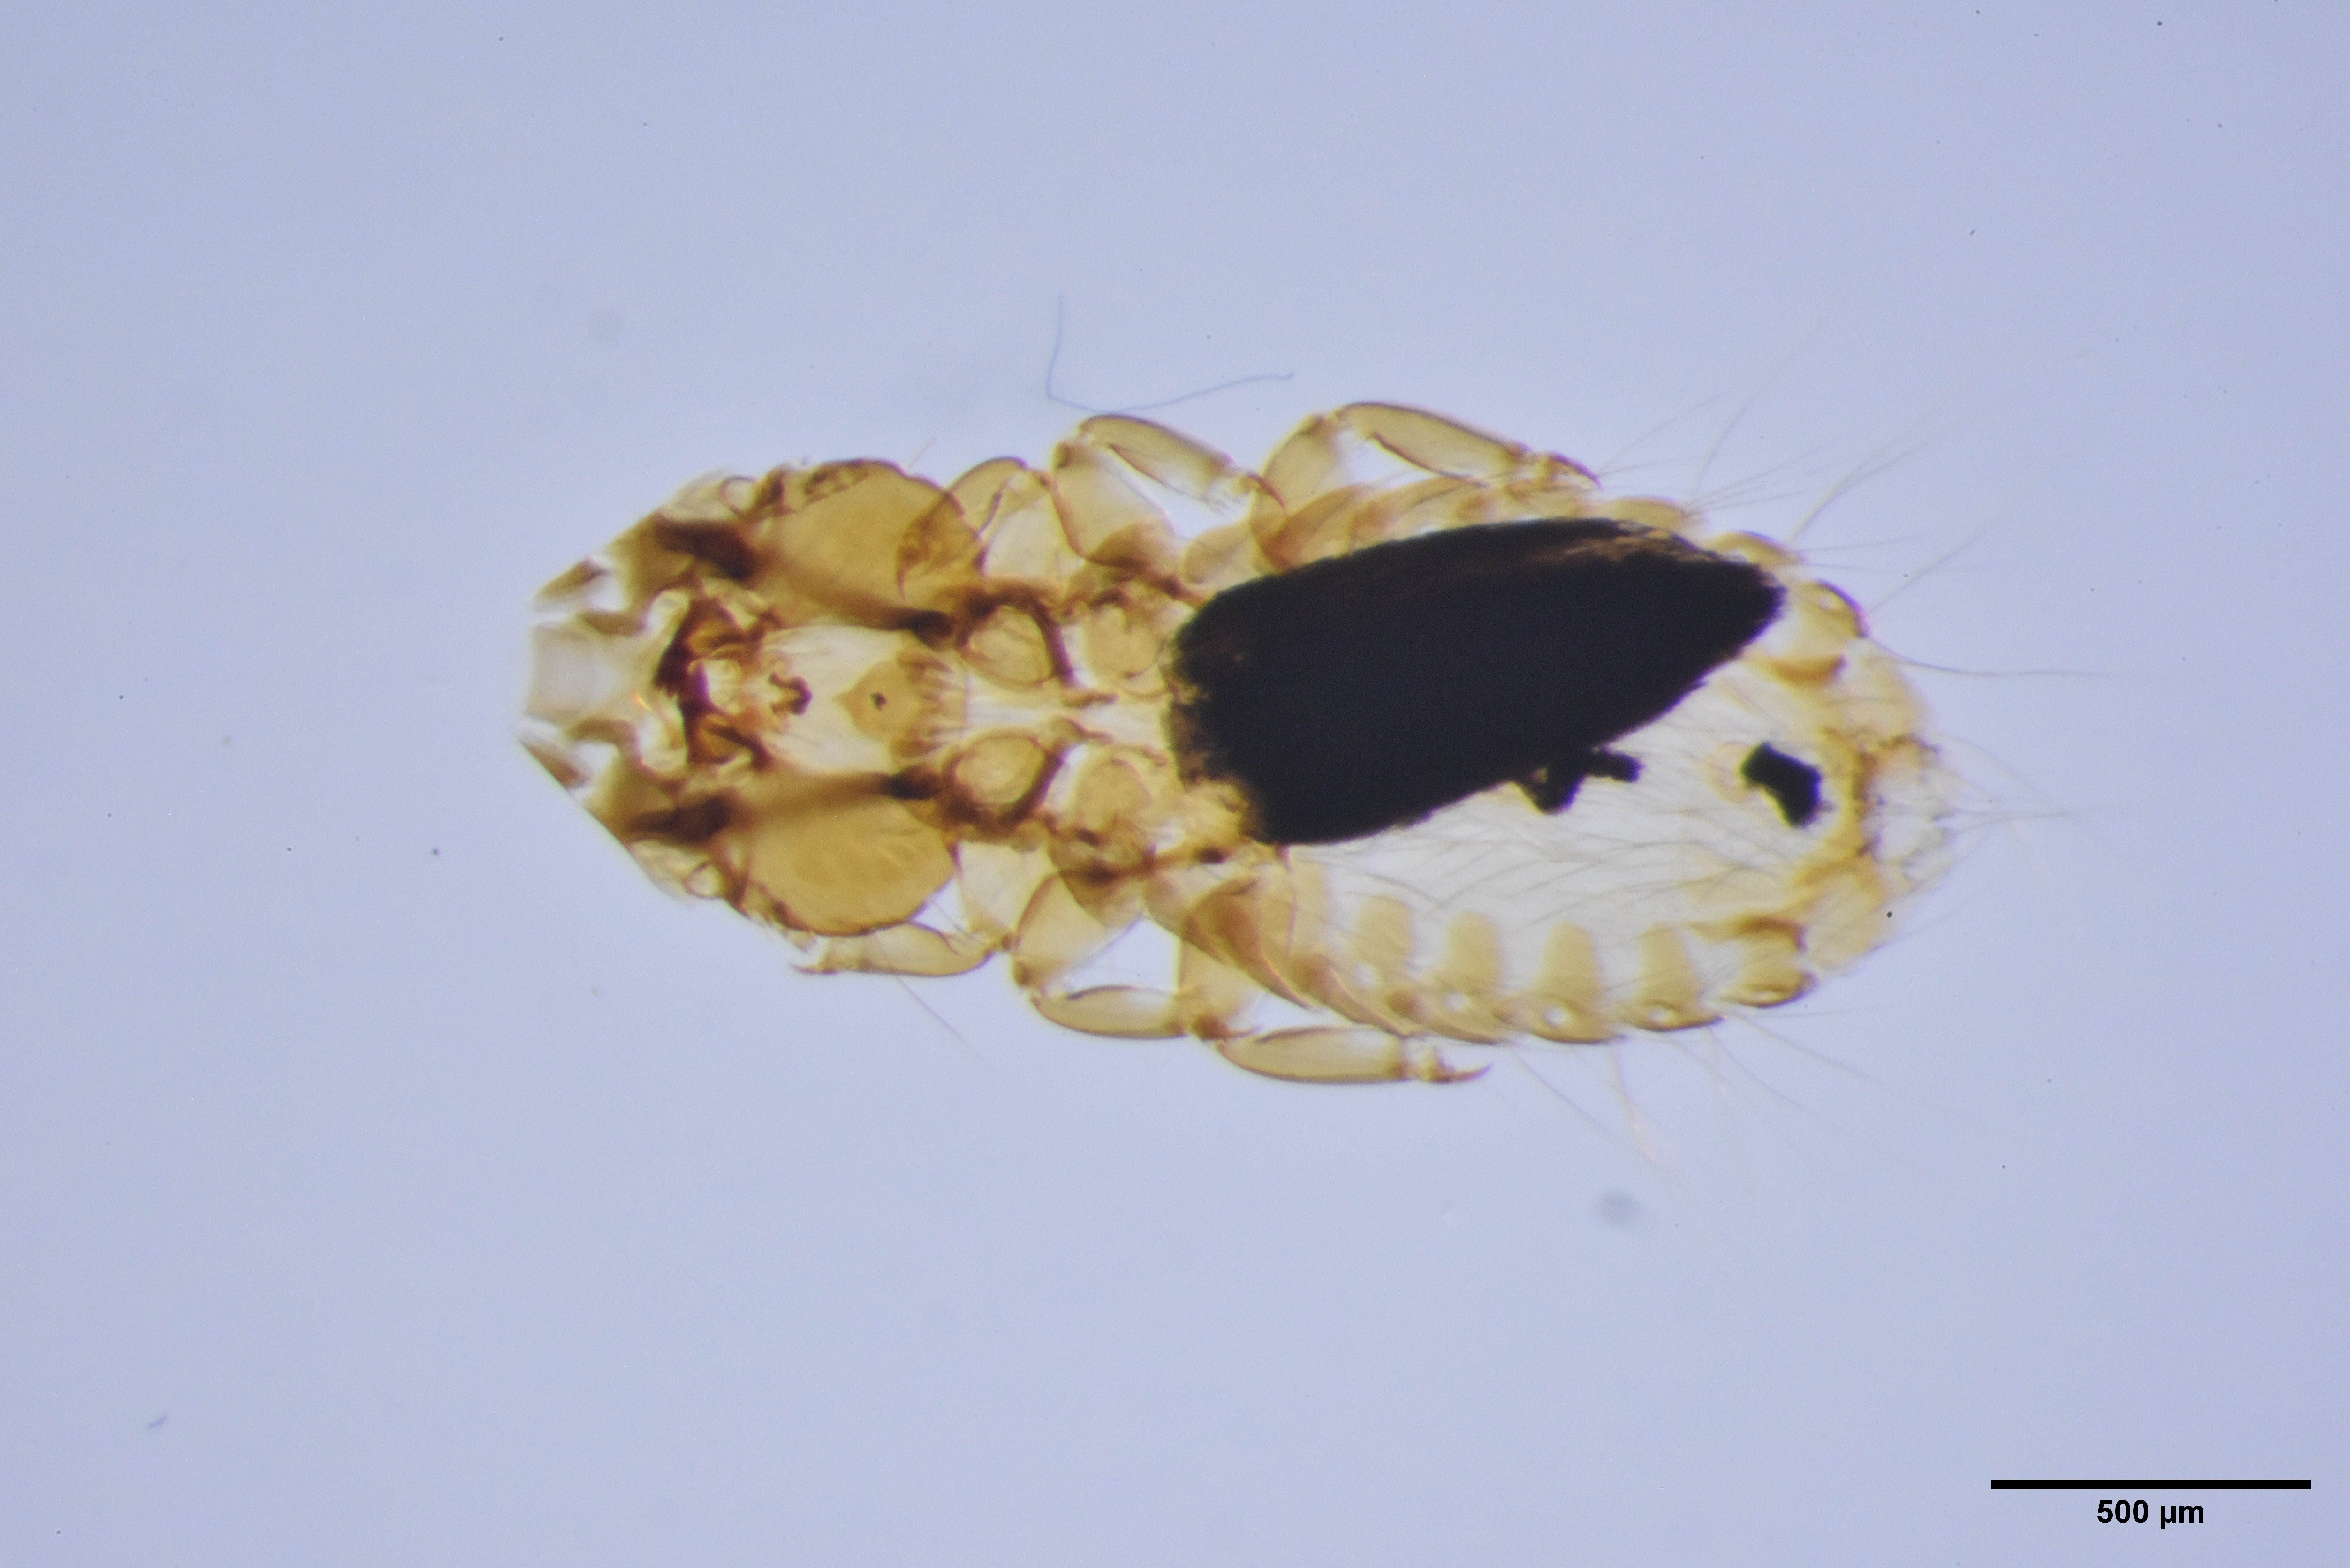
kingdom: Animalia
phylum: Arthropoda
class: Insecta
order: Psocodea
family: Philopteridae
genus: Strigiphilus
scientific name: Strigiphilus syrnii
